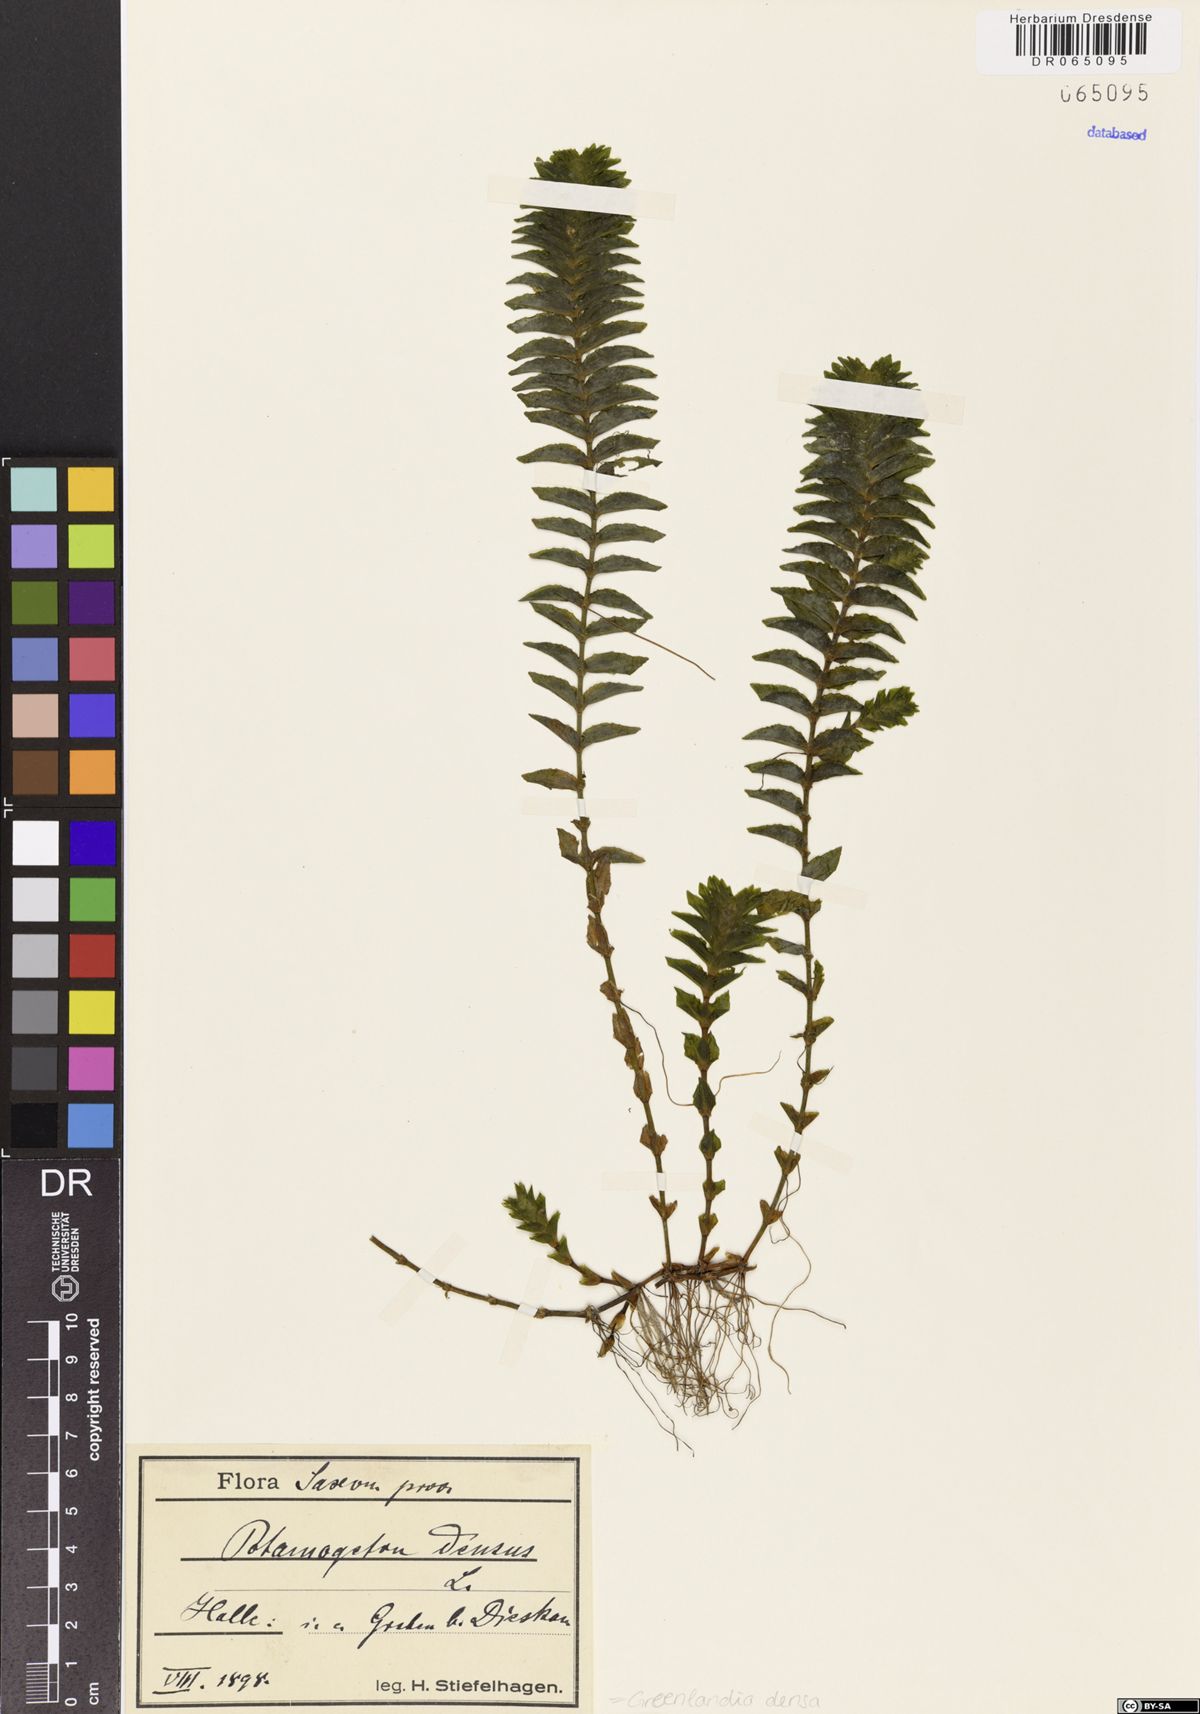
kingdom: Plantae
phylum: Tracheophyta
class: Liliopsida
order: Alismatales
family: Potamogetonaceae
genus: Groenlandia
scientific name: Groenlandia densa
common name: Opposite-leaved pondweed
